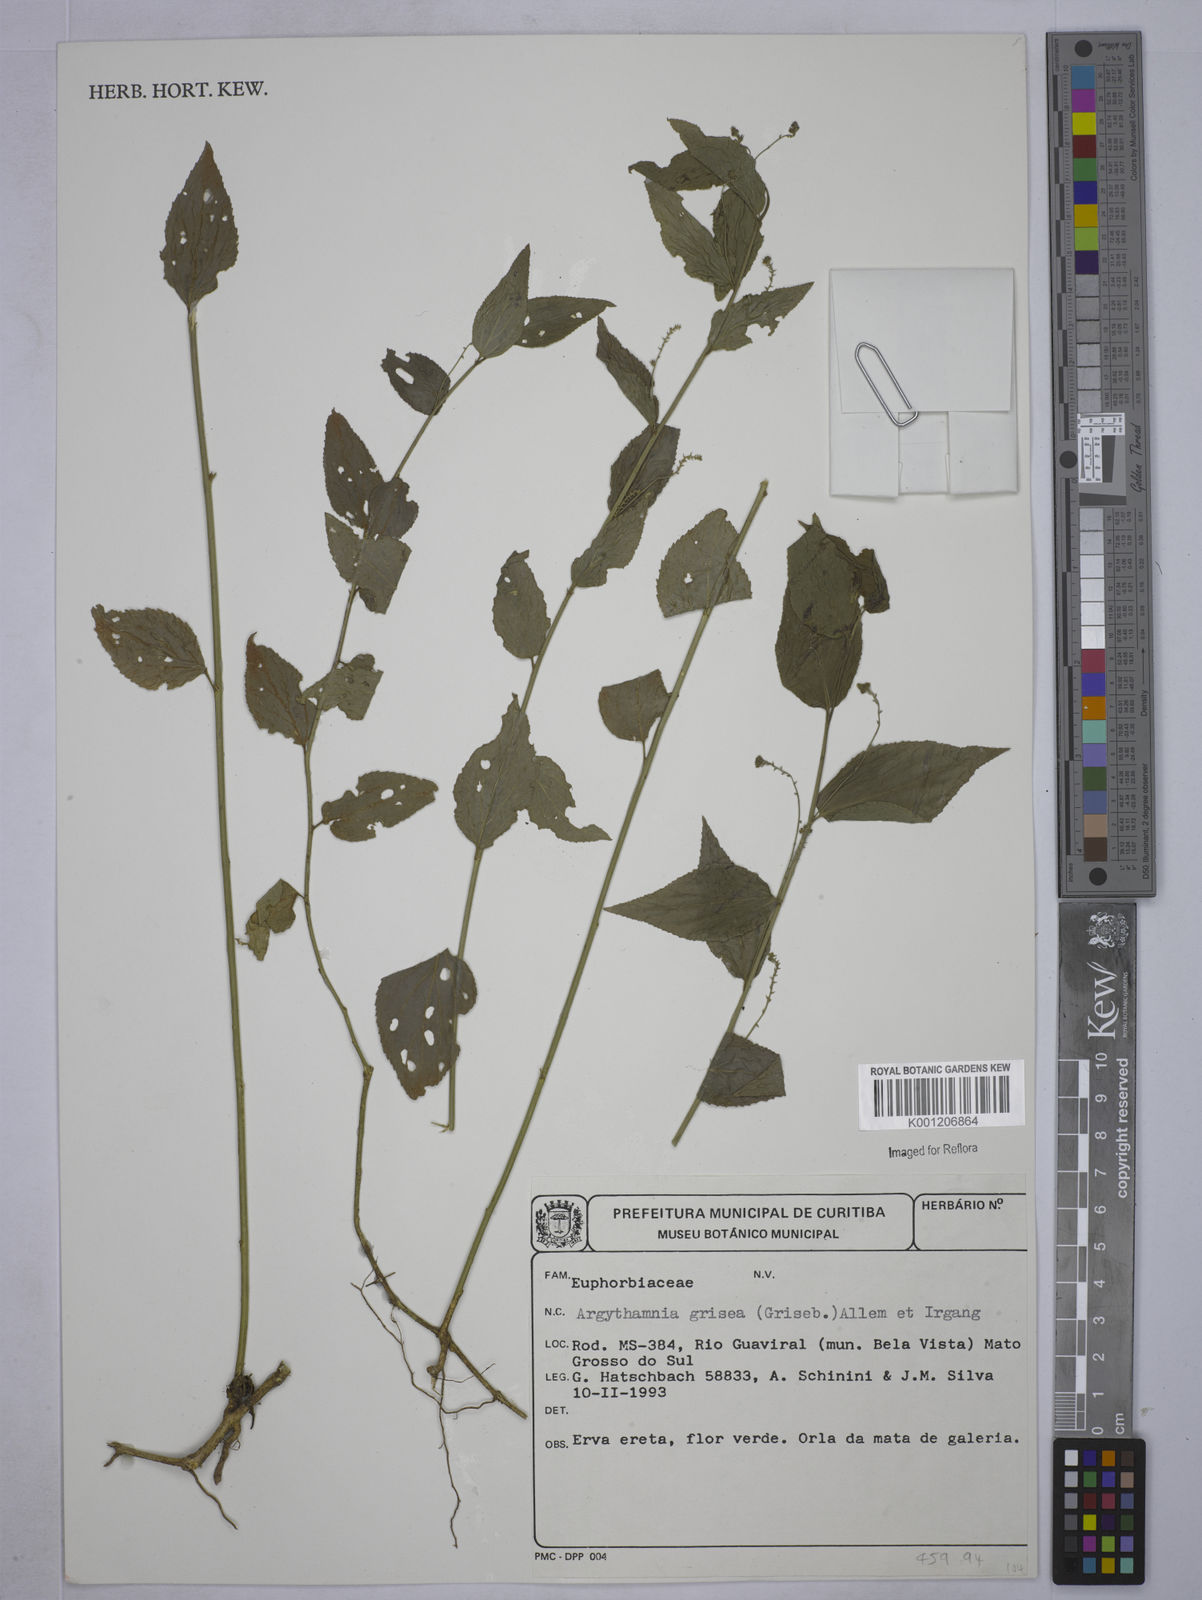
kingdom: Plantae
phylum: Tracheophyta
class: Magnoliopsida
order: Malpighiales
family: Euphorbiaceae
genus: Chiropetalum
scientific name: Chiropetalum griseum
